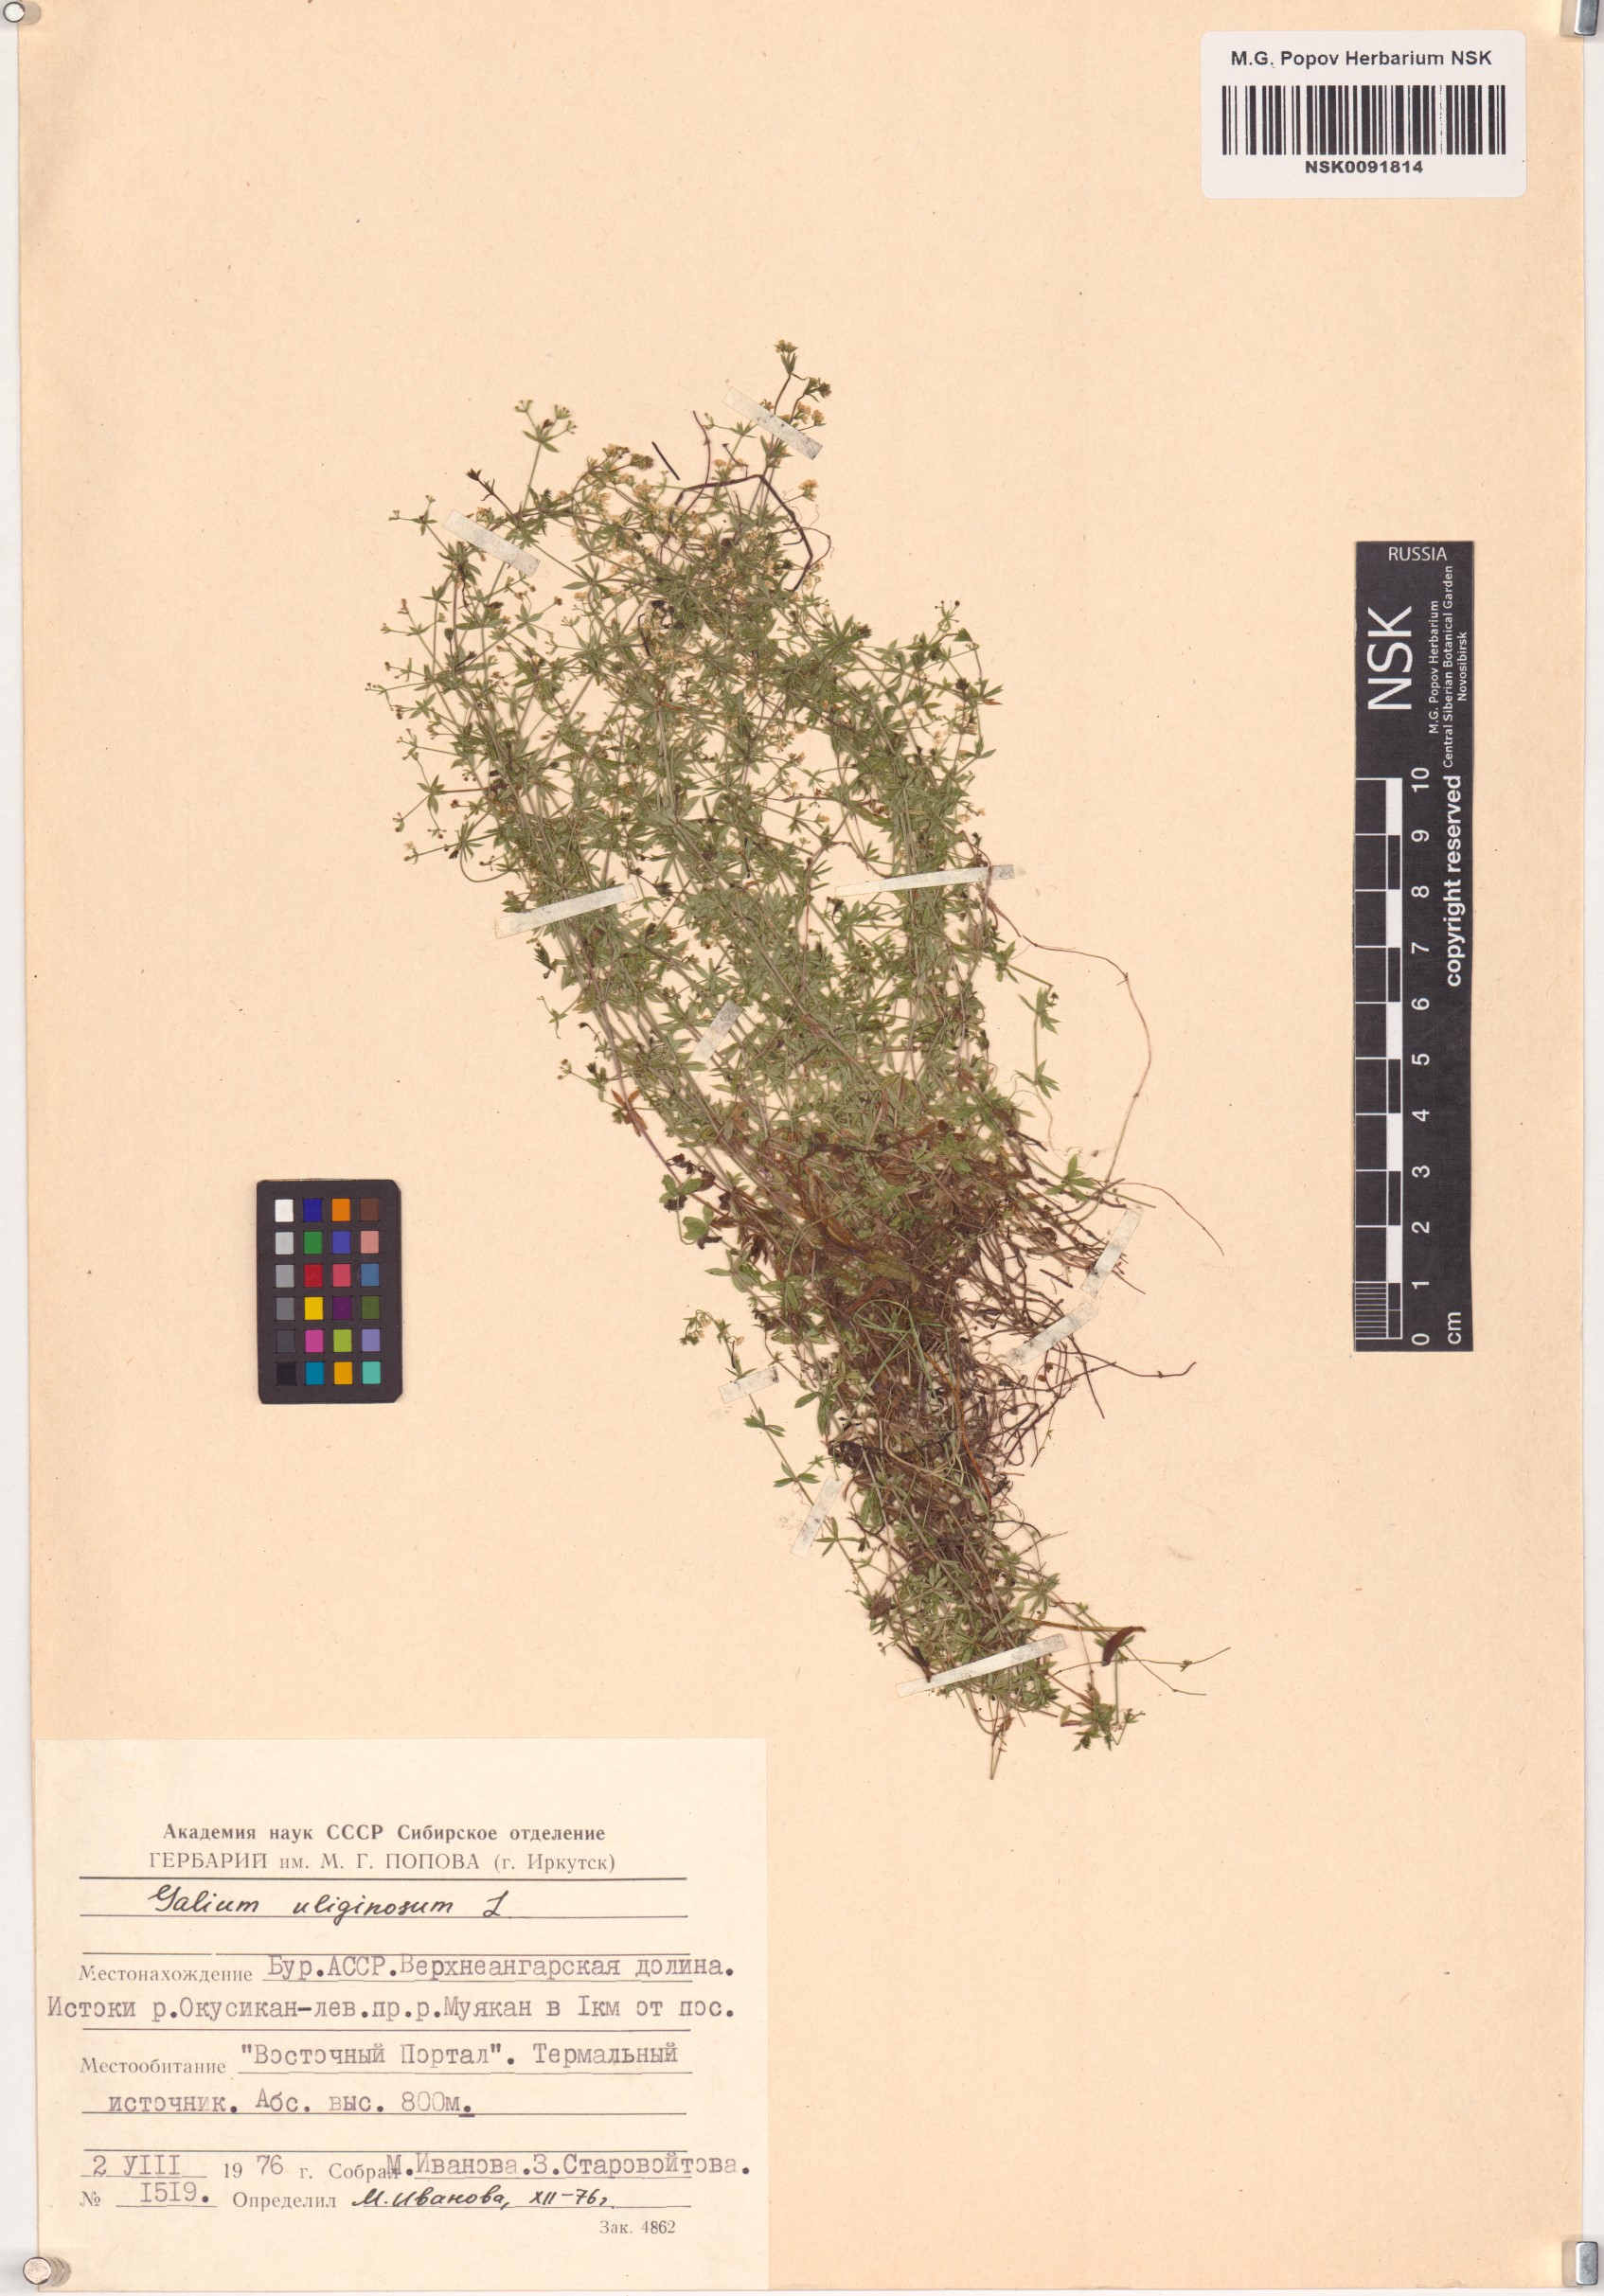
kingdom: Plantae
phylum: Tracheophyta
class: Magnoliopsida
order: Gentianales
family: Rubiaceae
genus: Galium
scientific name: Galium uliginosum
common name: Fen bedstraw
